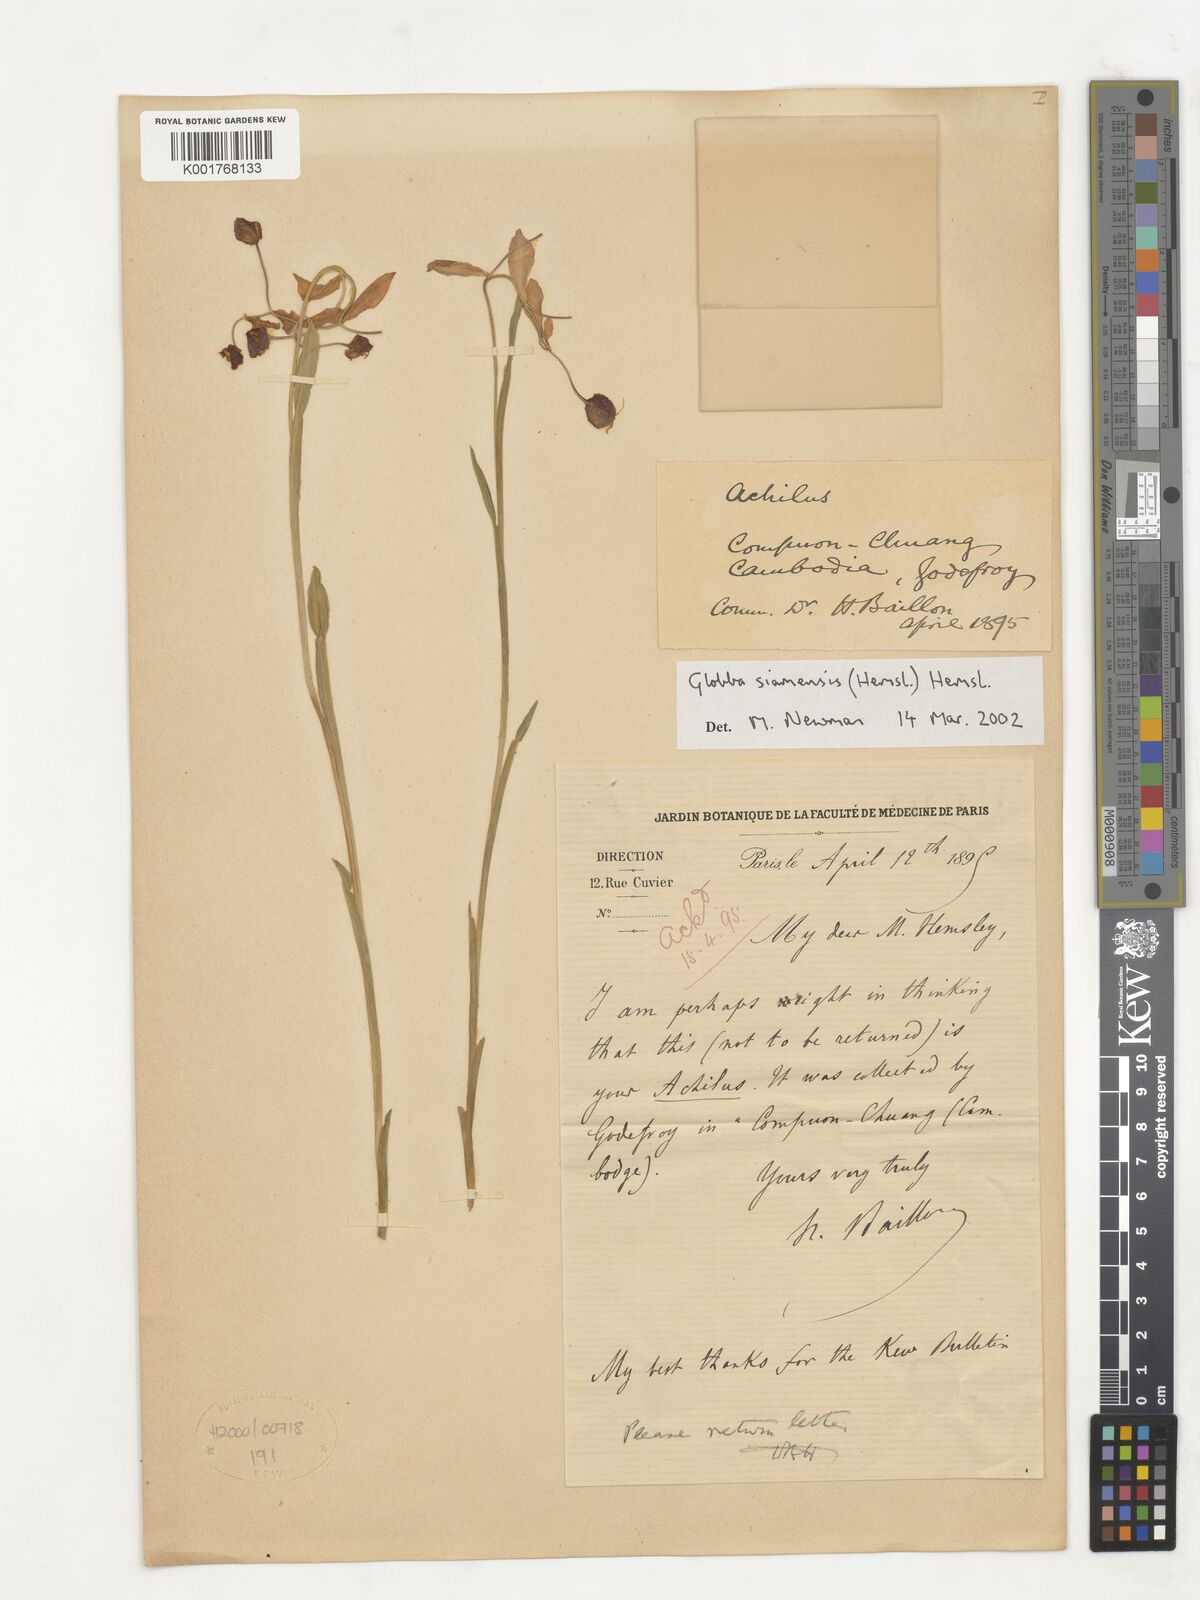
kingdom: Plantae
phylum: Tracheophyta
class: Liliopsida
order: Zingiberales
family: Zingiberaceae
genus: Globba
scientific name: Globba siamensis
